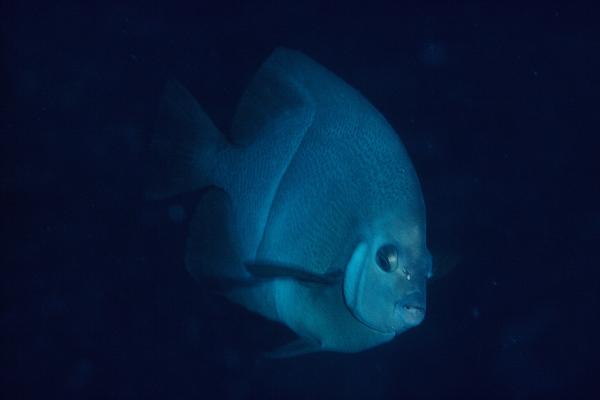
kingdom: Animalia
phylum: Chordata
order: Perciformes
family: Pomacanthidae
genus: Pomacanthus
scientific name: Pomacanthus rhomboides
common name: Old woman
